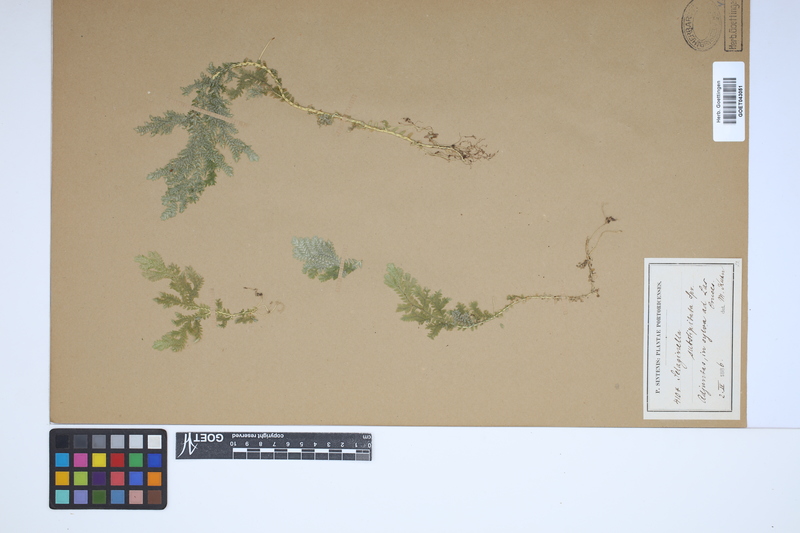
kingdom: Plantae
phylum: Tracheophyta
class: Lycopodiopsida
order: Selaginellales
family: Selaginellaceae
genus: Selaginella
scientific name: Selaginella substipitata
